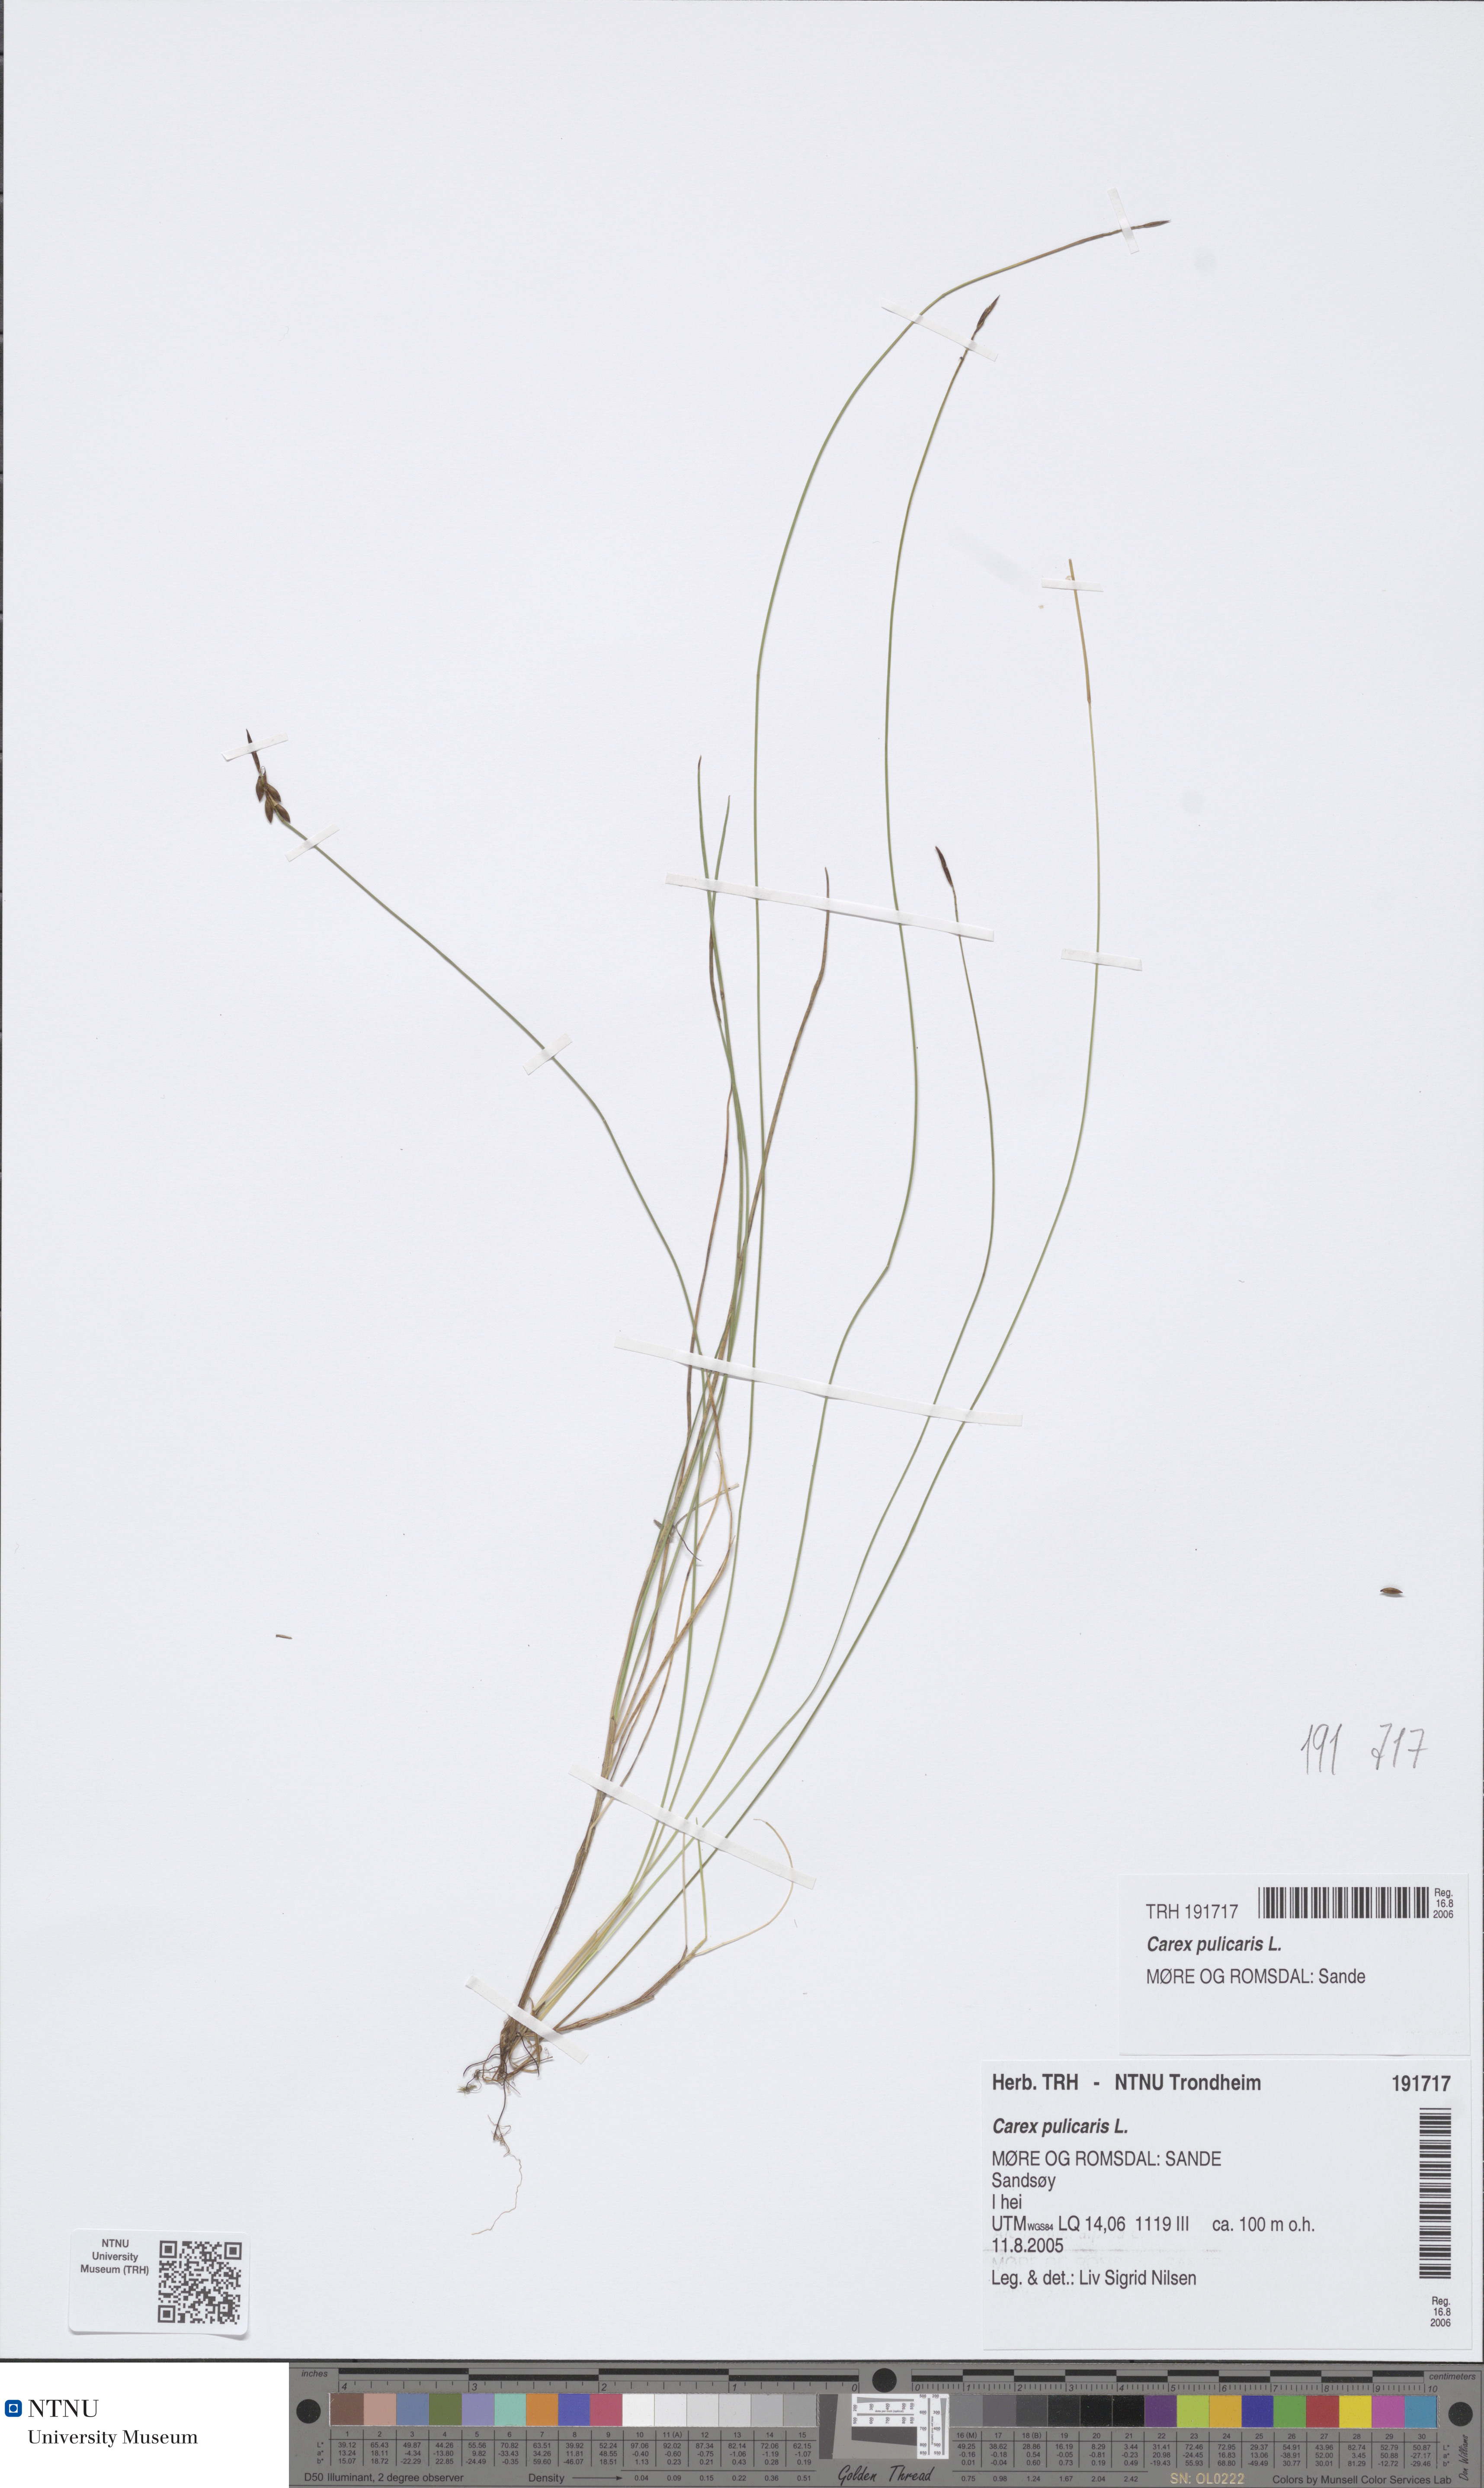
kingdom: Plantae
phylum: Tracheophyta
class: Liliopsida
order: Poales
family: Cyperaceae
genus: Carex
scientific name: Carex pulicaris
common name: Flea sedge
